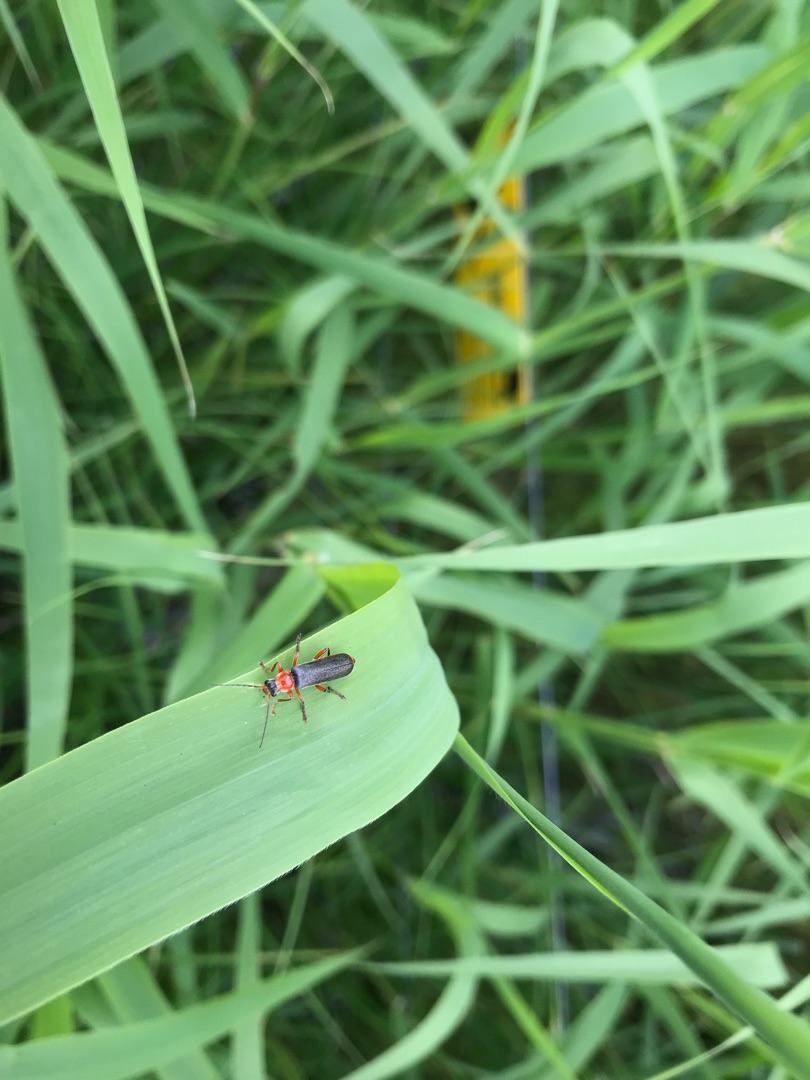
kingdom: Animalia
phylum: Arthropoda
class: Insecta
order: Coleoptera
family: Cantharidae
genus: Cantharis
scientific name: Cantharis pellucida
